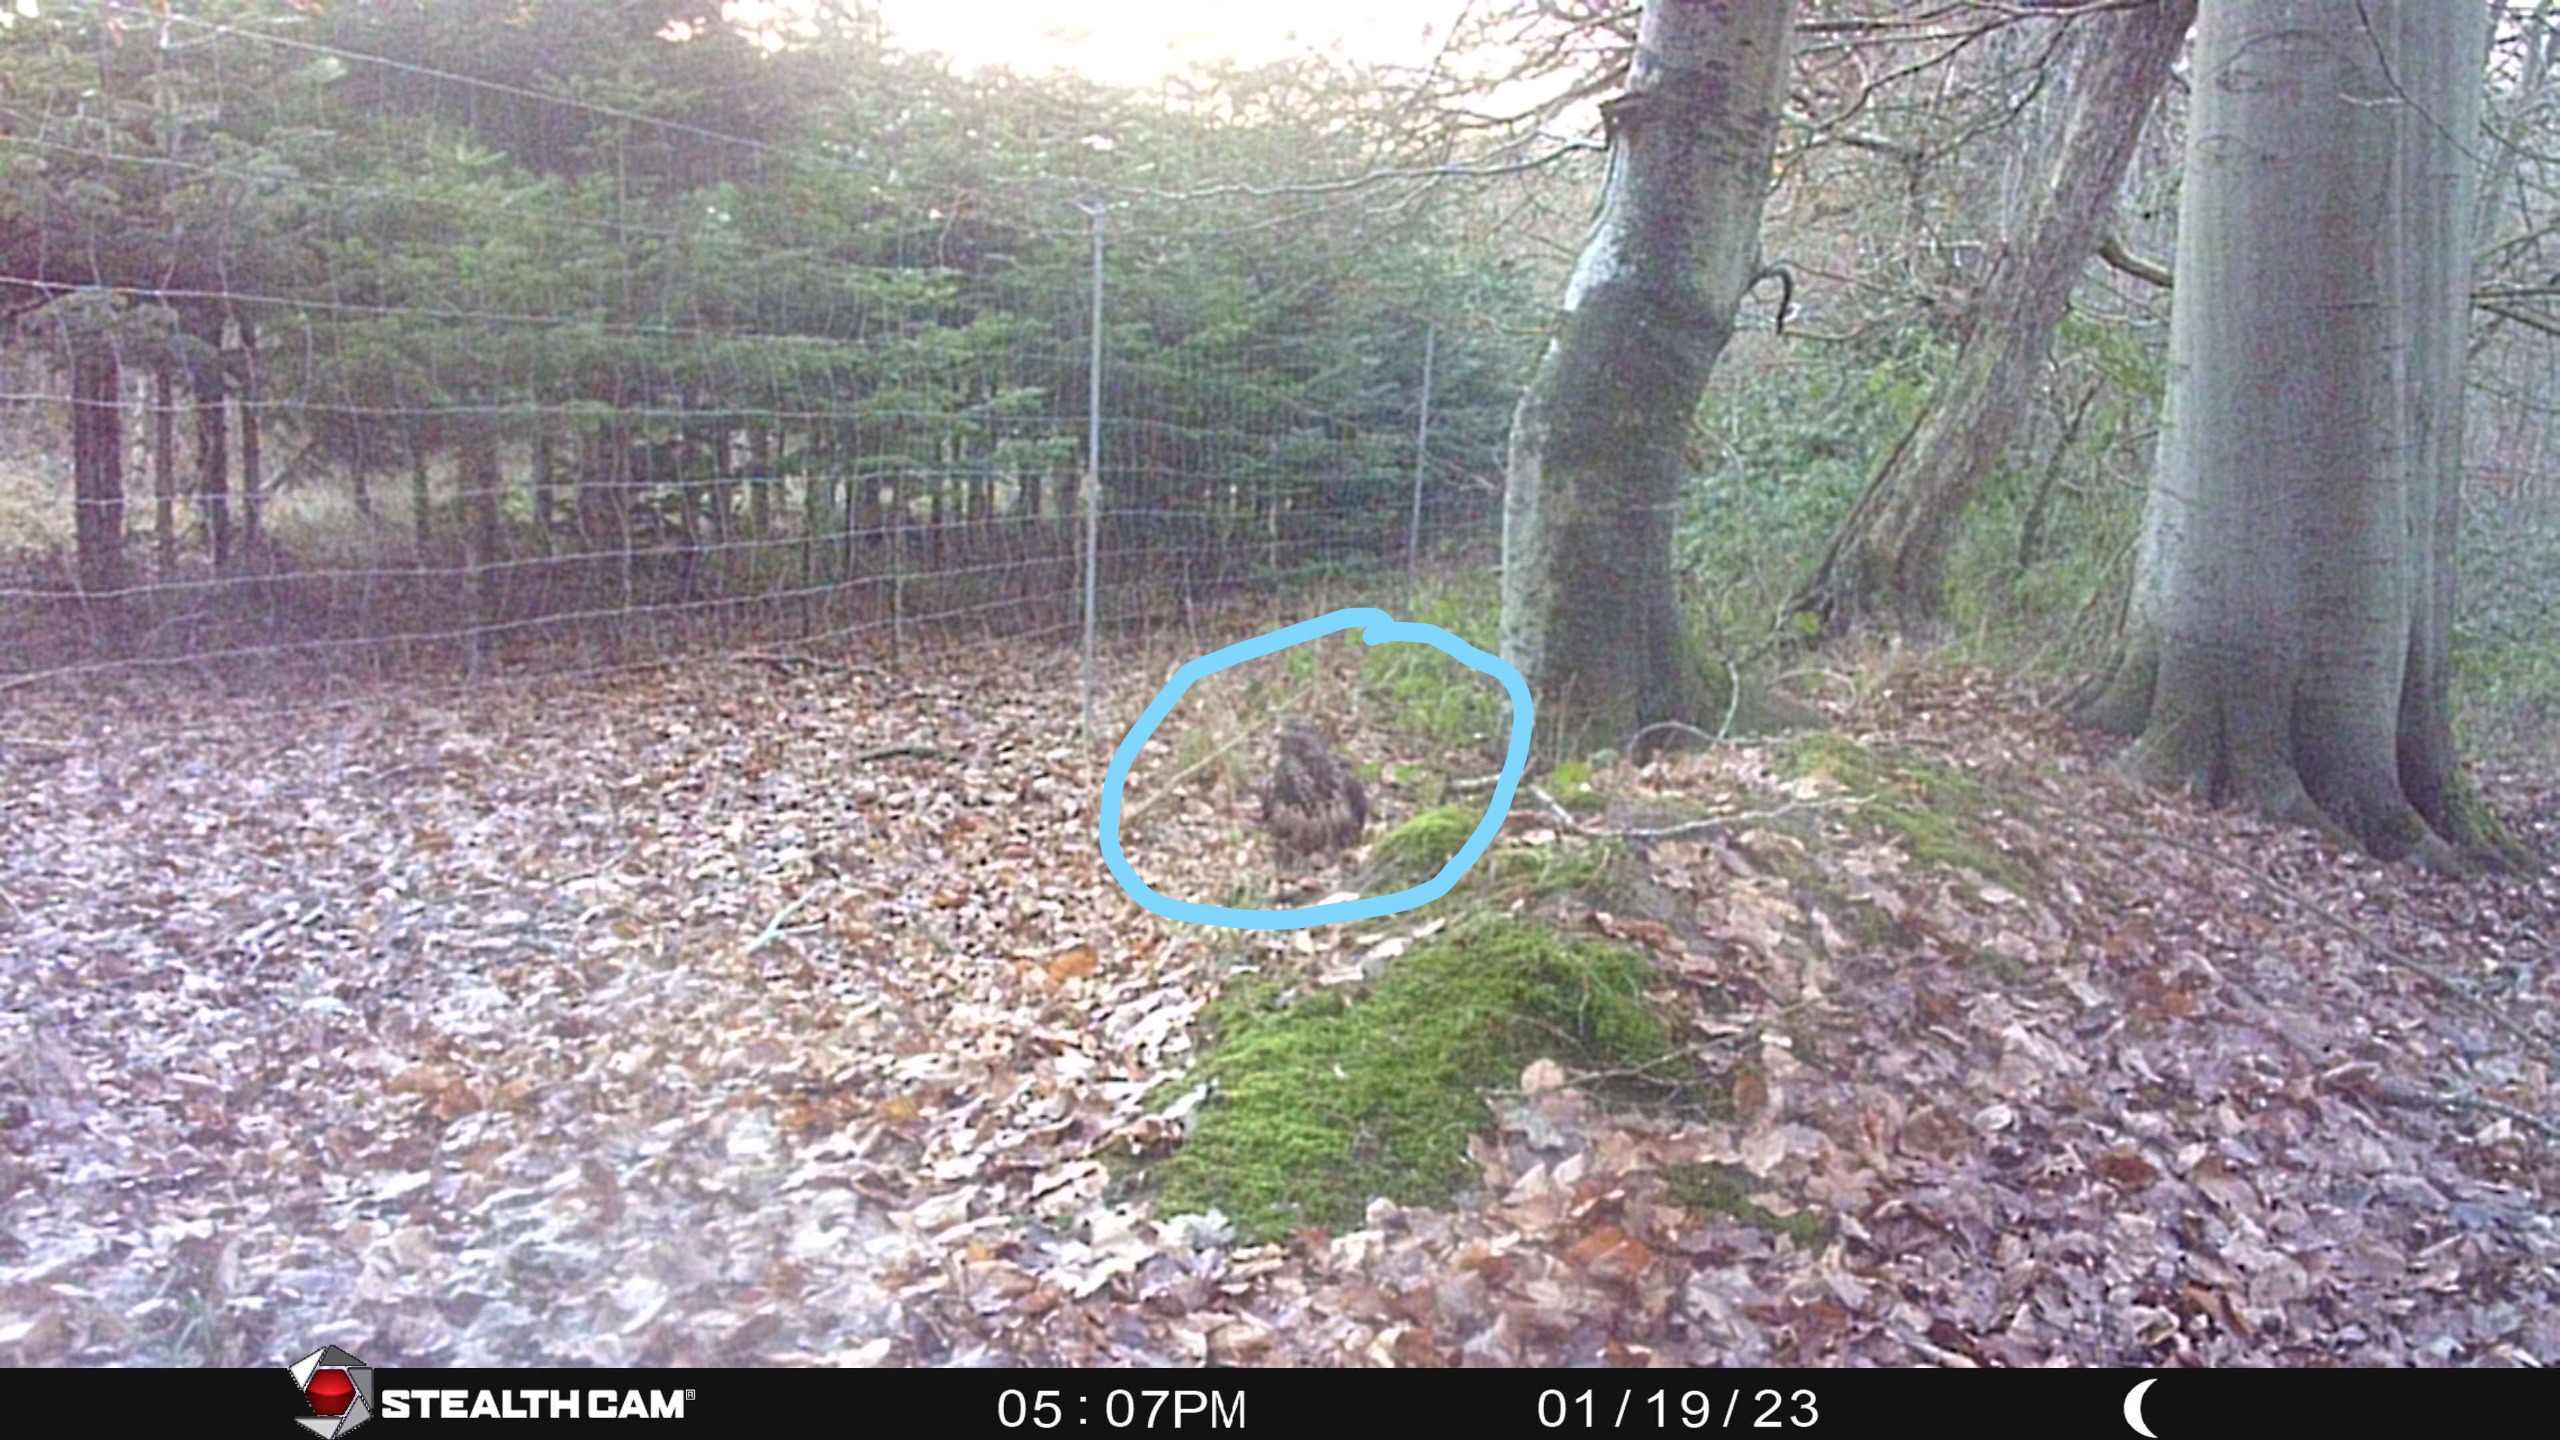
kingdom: Animalia
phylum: Chordata
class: Aves
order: Accipitriformes
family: Accipitridae
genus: Buteo
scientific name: Buteo buteo
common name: Musvåge
